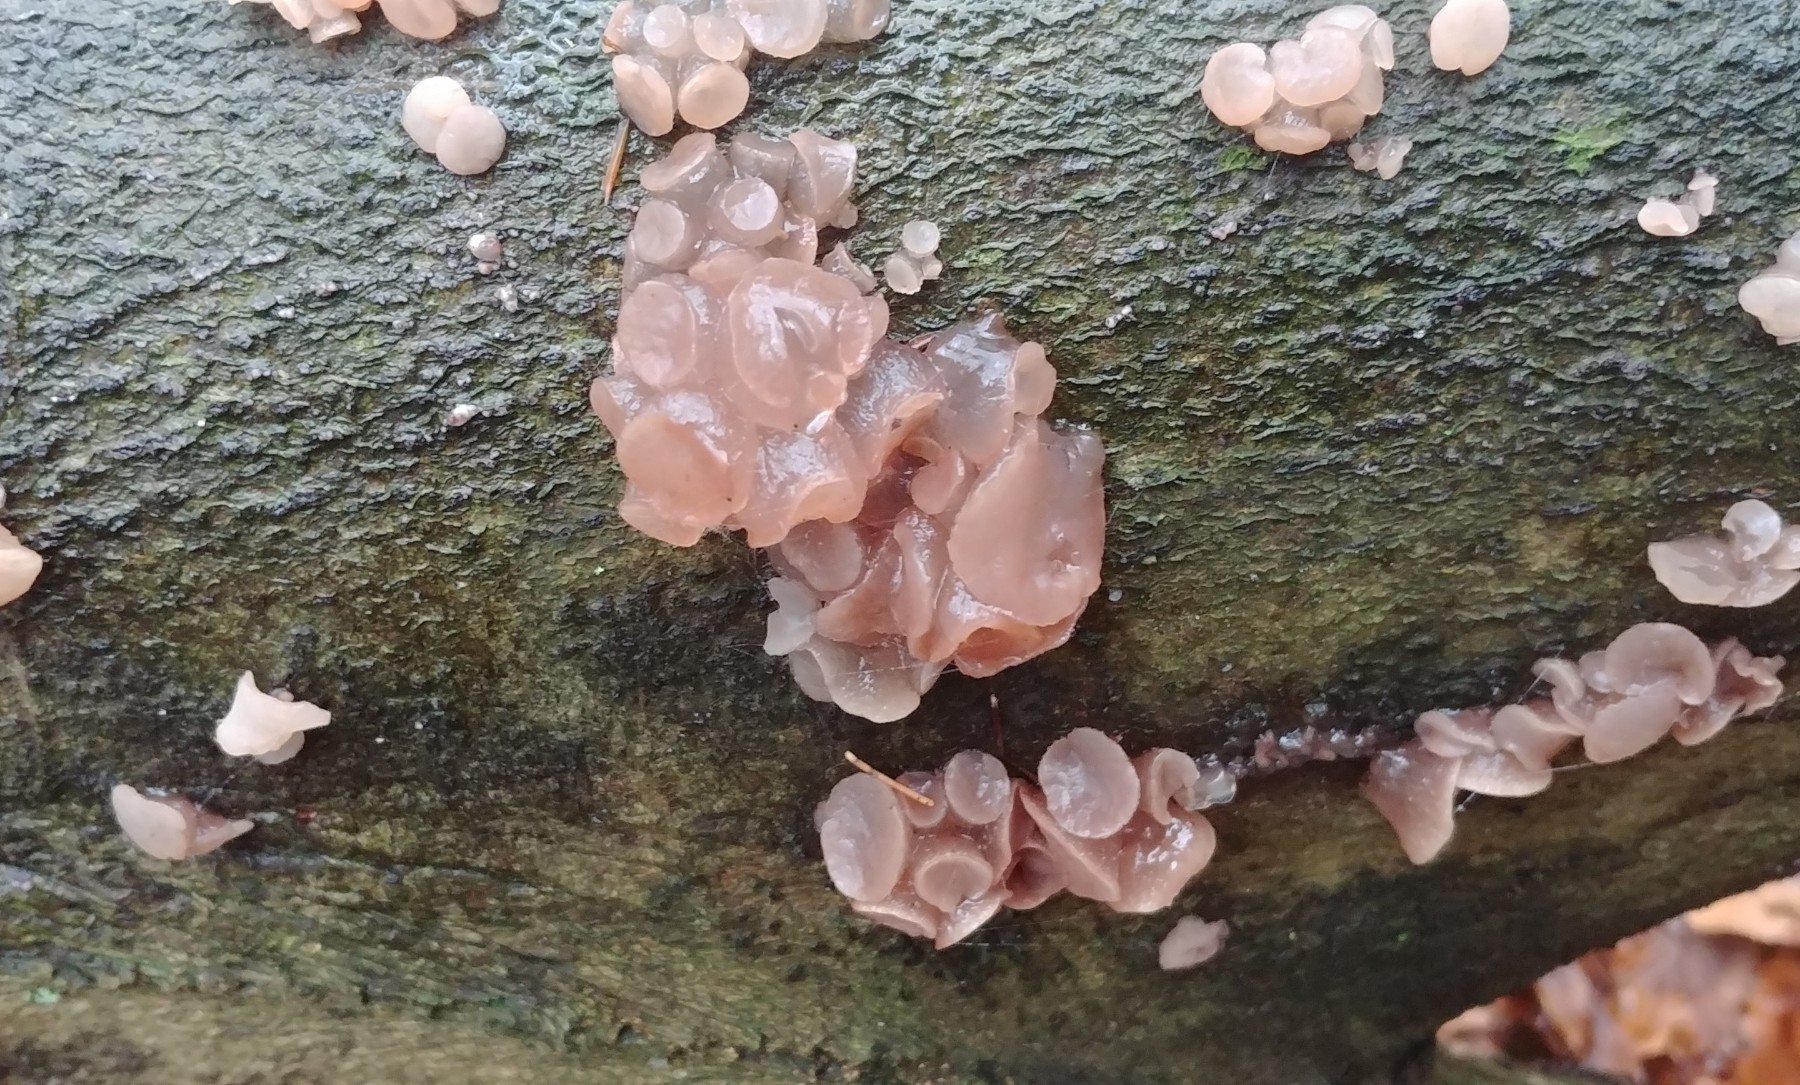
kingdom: Fungi
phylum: Ascomycota
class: Leotiomycetes
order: Helotiales
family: Gelatinodiscaceae
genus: Neobulgaria
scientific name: Neobulgaria pura
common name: bleg bævreskive
